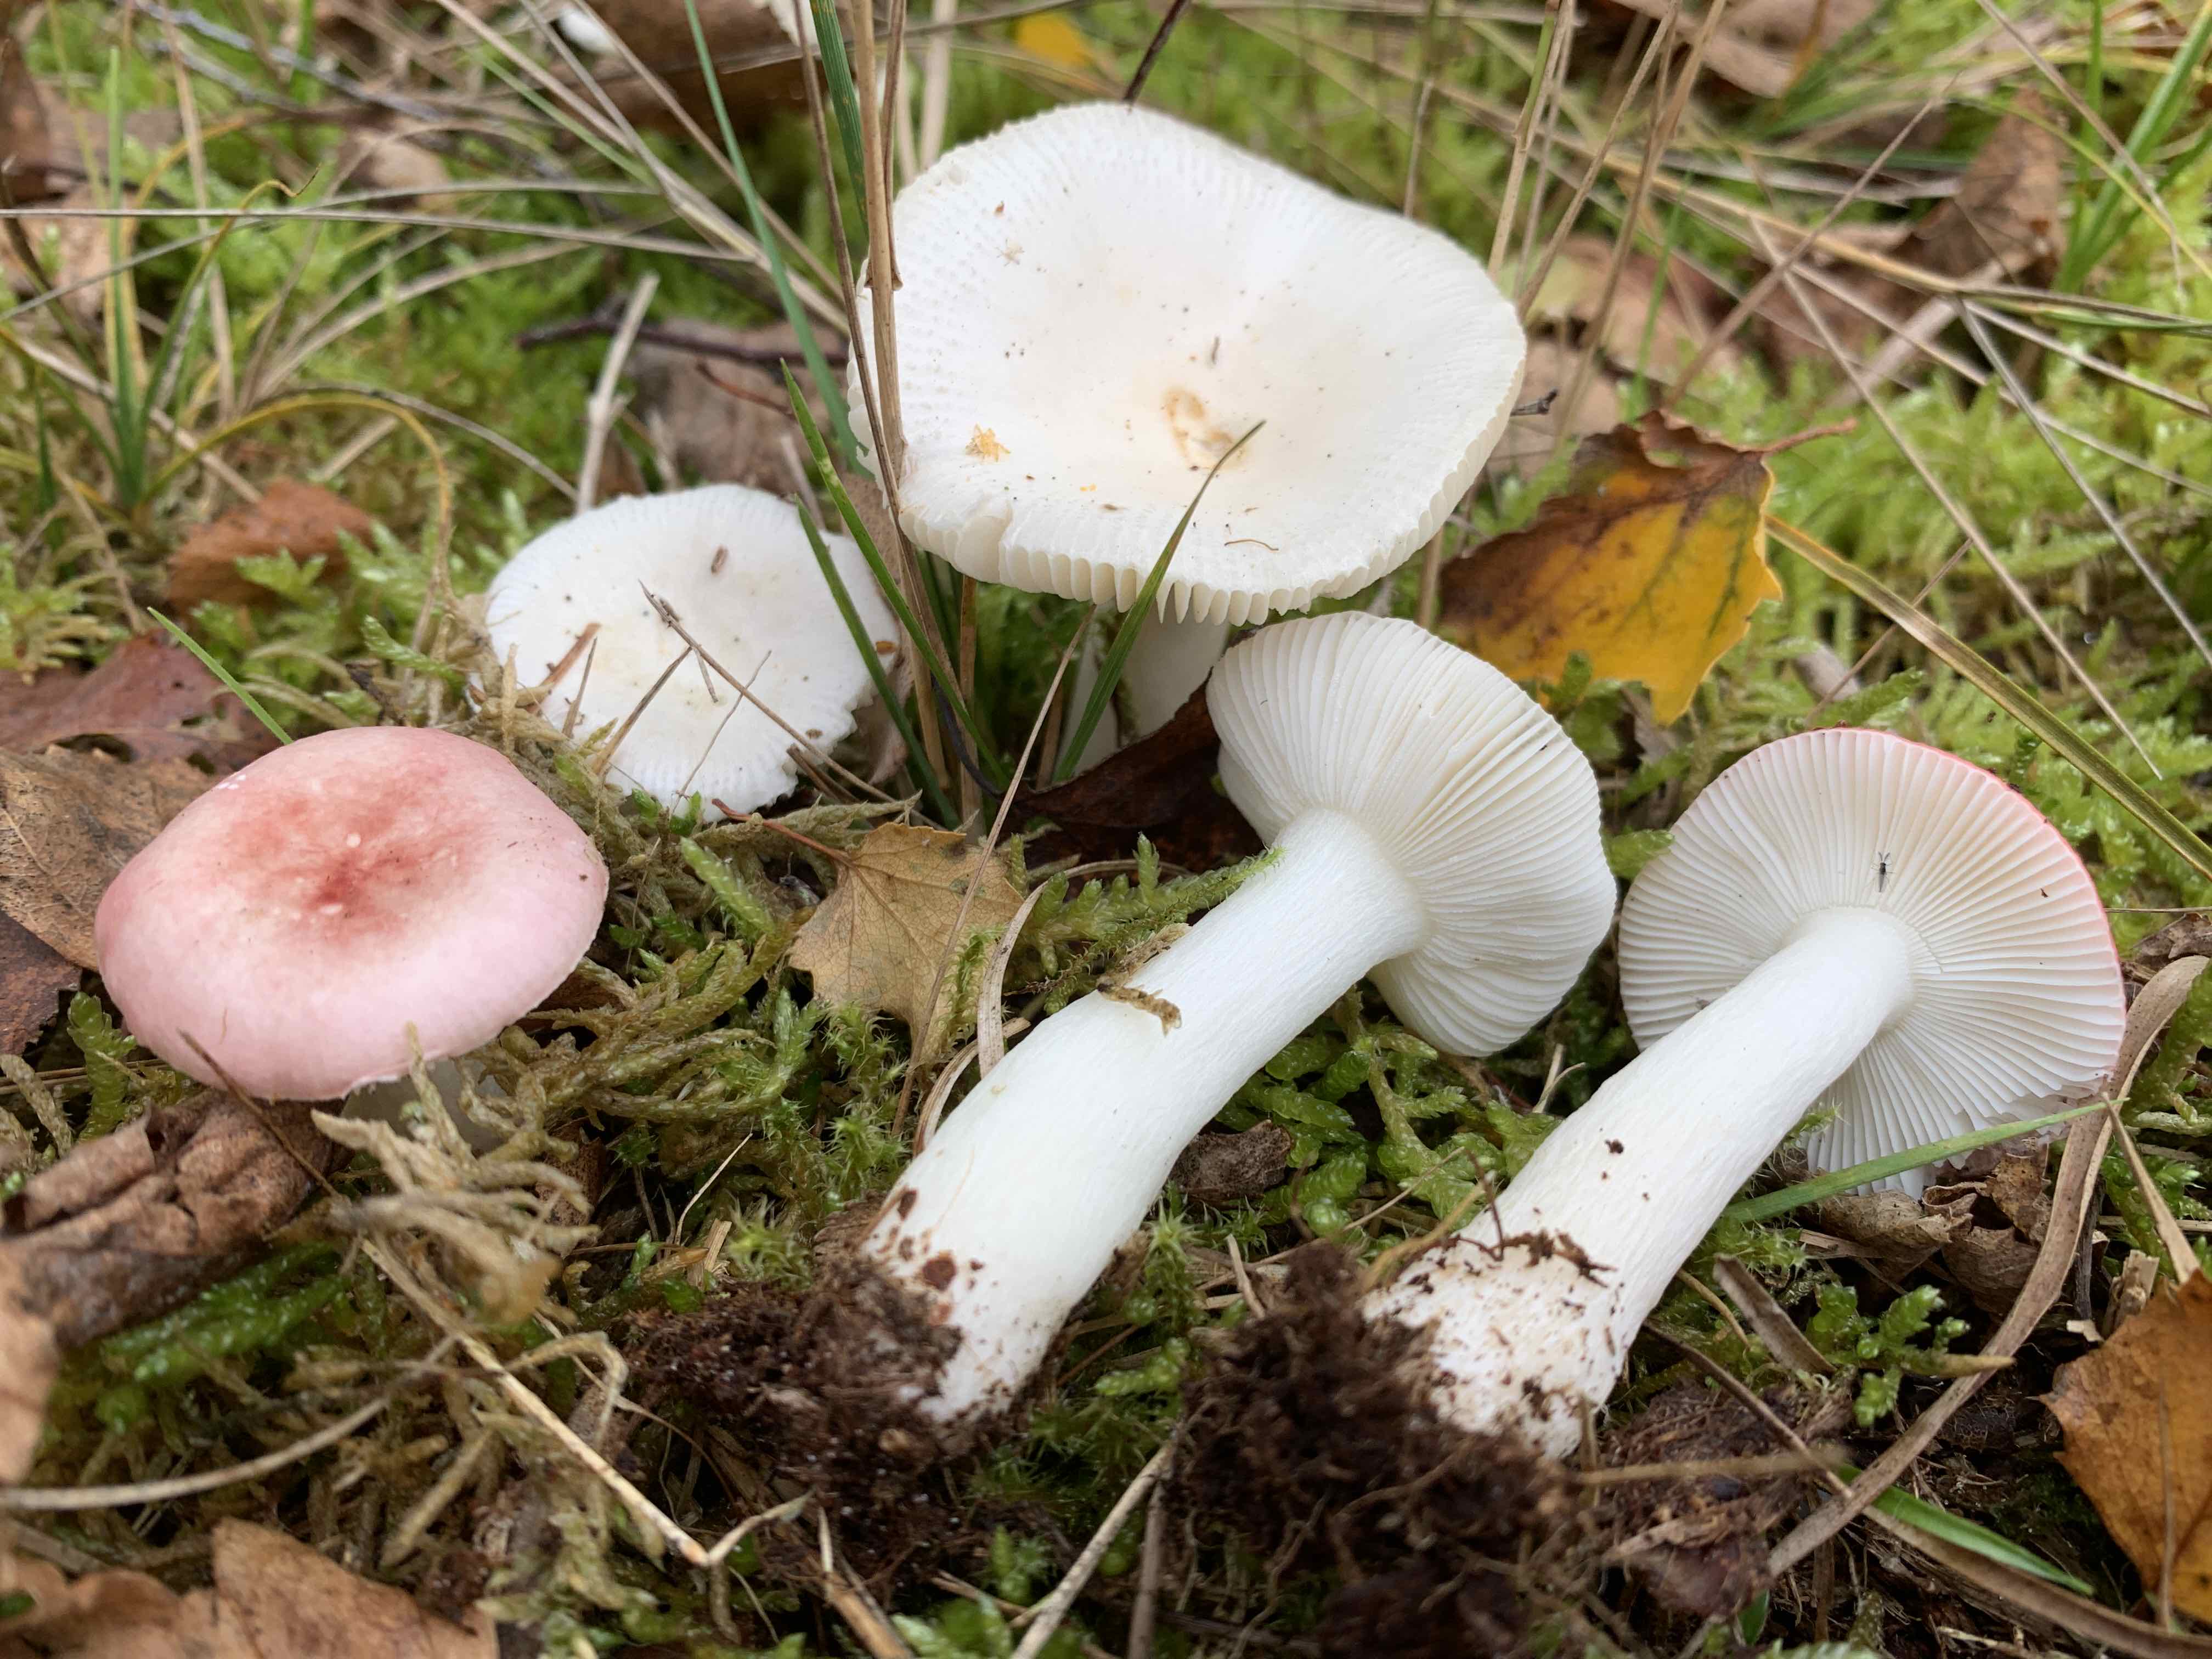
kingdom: Fungi
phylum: Basidiomycota
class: Agaricomycetes
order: Russulales
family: Russulaceae
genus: Russula
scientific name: Russula betularum
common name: bleg gift-skørhat
